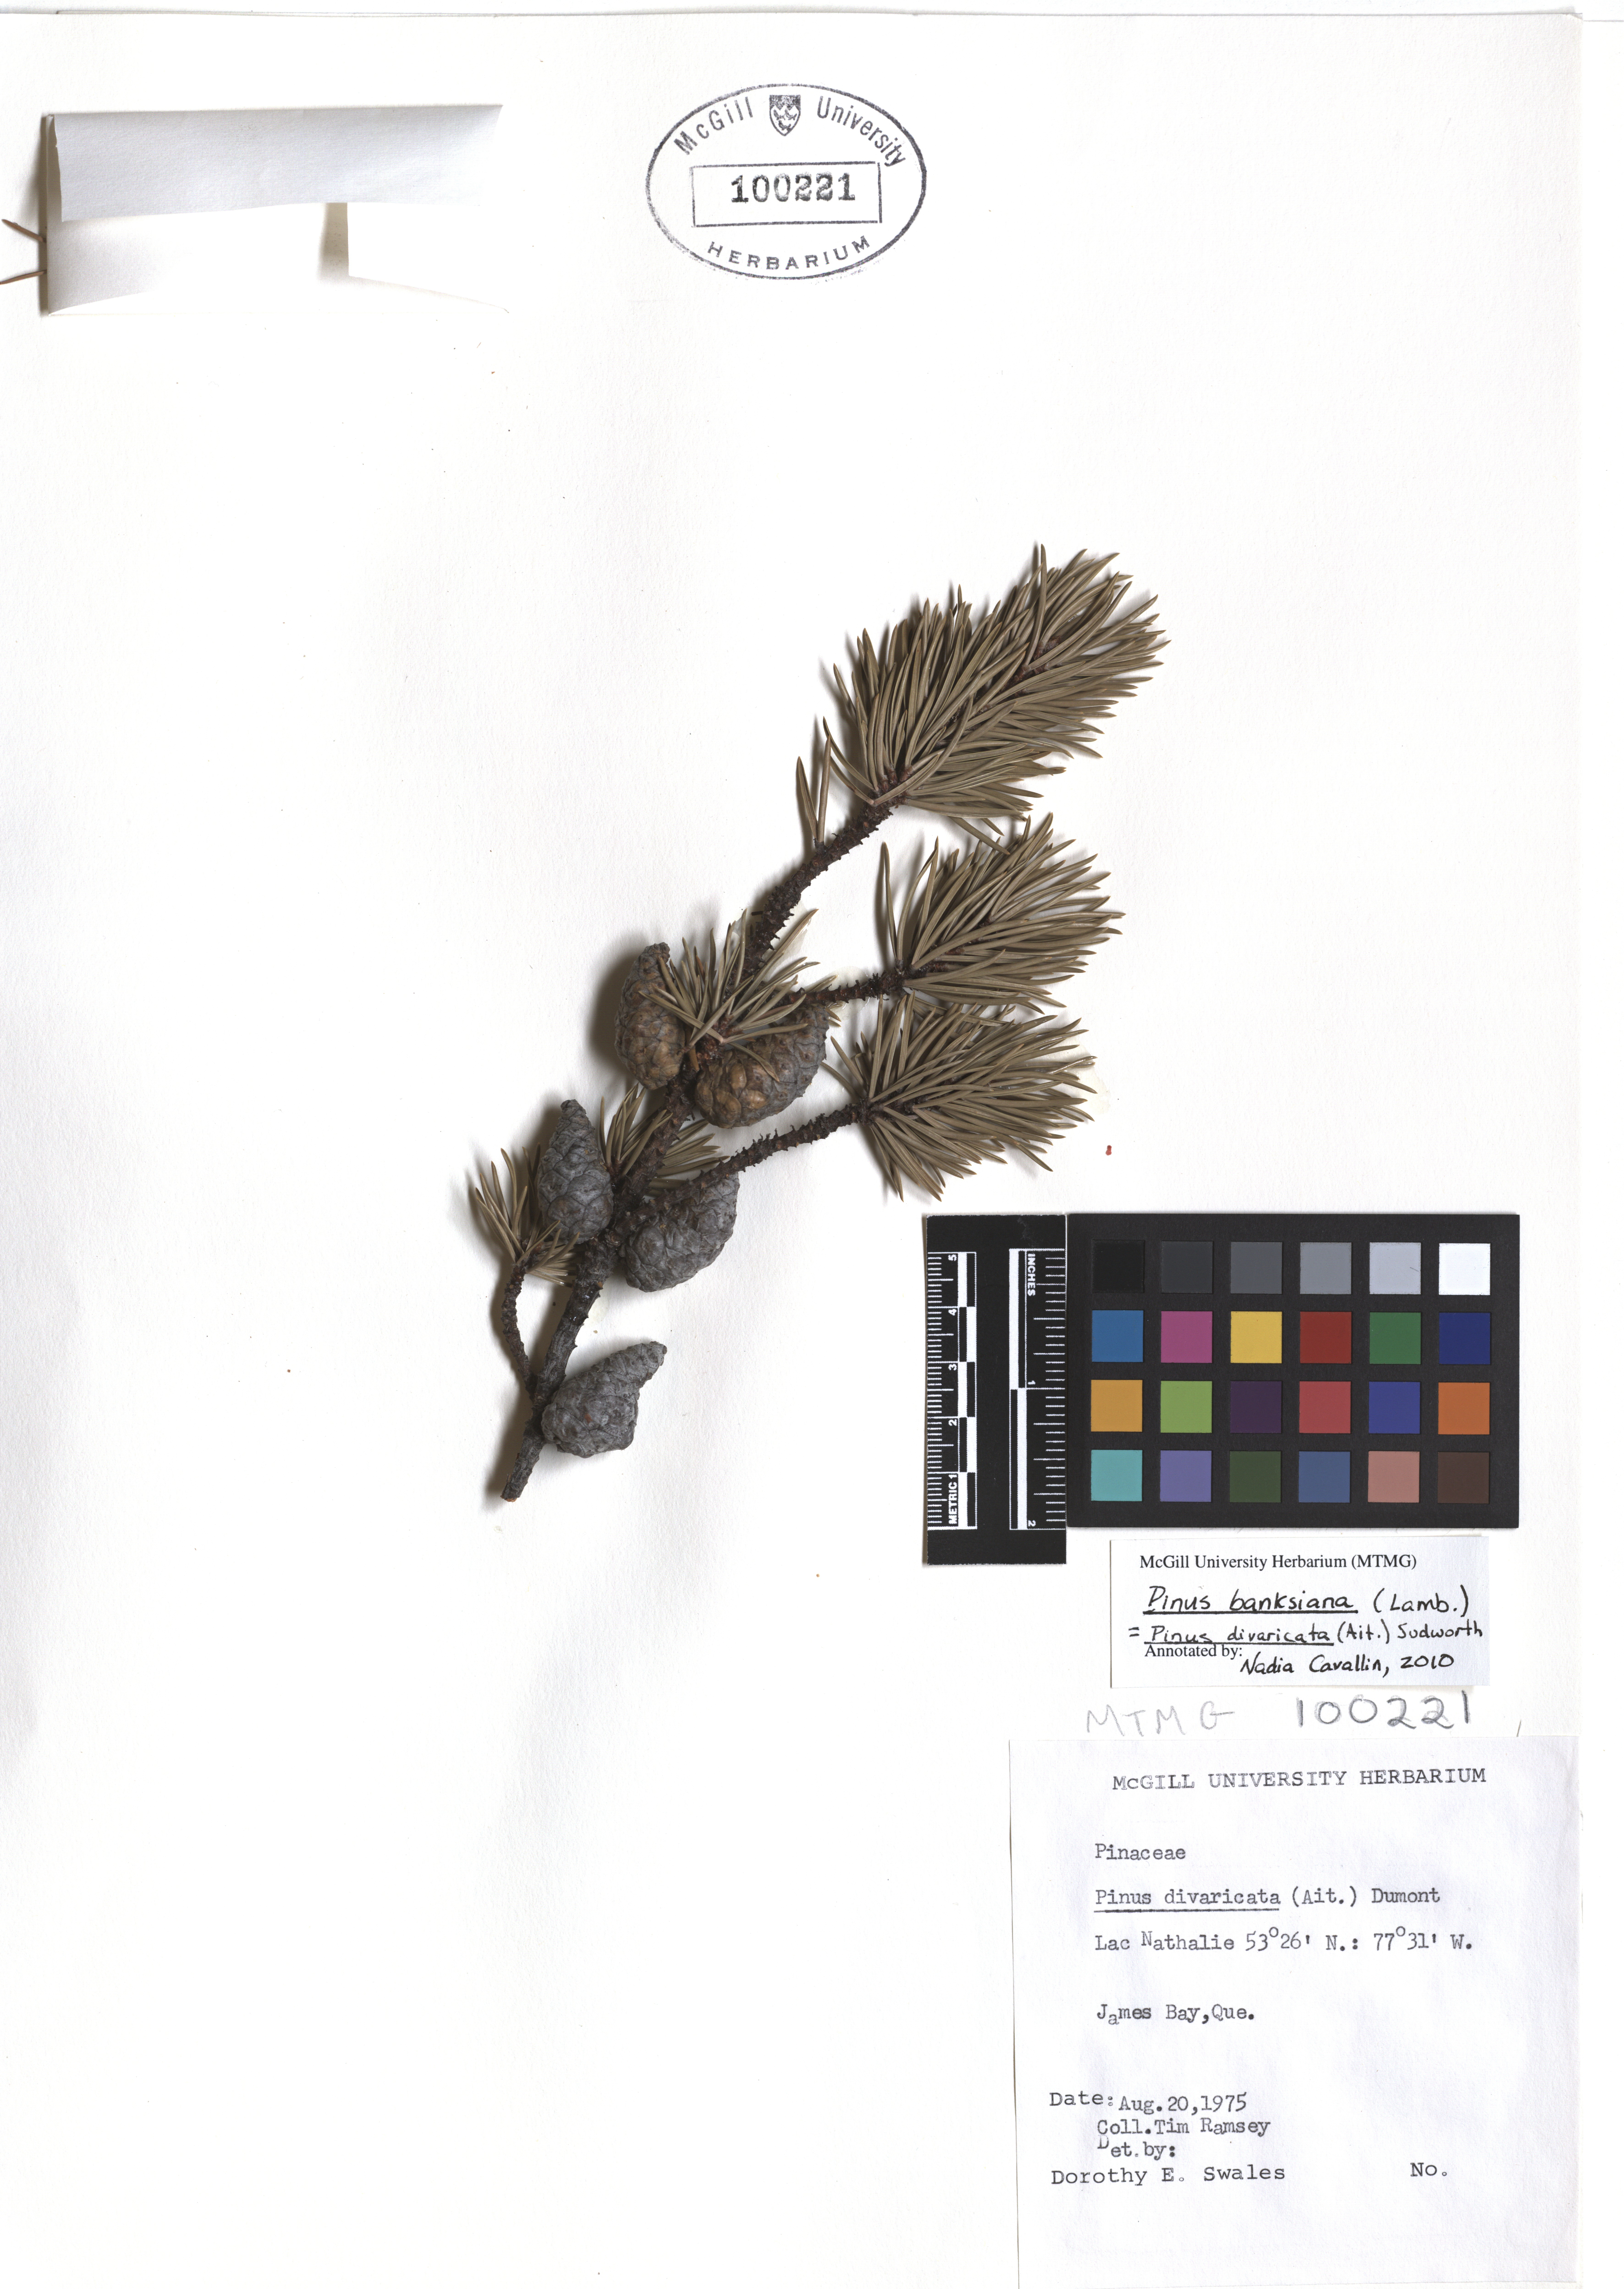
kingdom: Plantae
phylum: Tracheophyta
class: Pinopsida
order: Pinales
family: Pinaceae
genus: Pinus
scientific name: Pinus banksiana
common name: Jack pine
